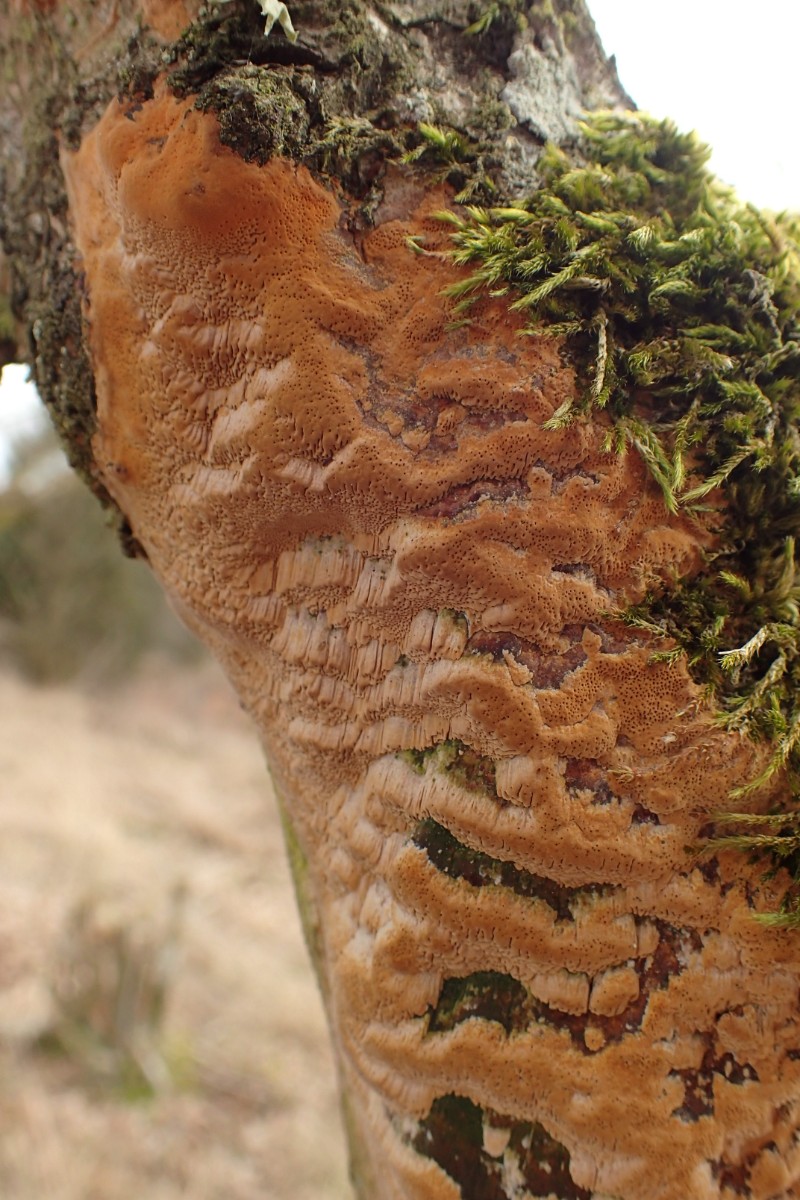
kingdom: Fungi
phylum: Basidiomycota
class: Agaricomycetes
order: Hymenochaetales
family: Hymenochaetaceae
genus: Fuscoporia
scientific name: Fuscoporia ferrea
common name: skorpe-ildporesvamp
